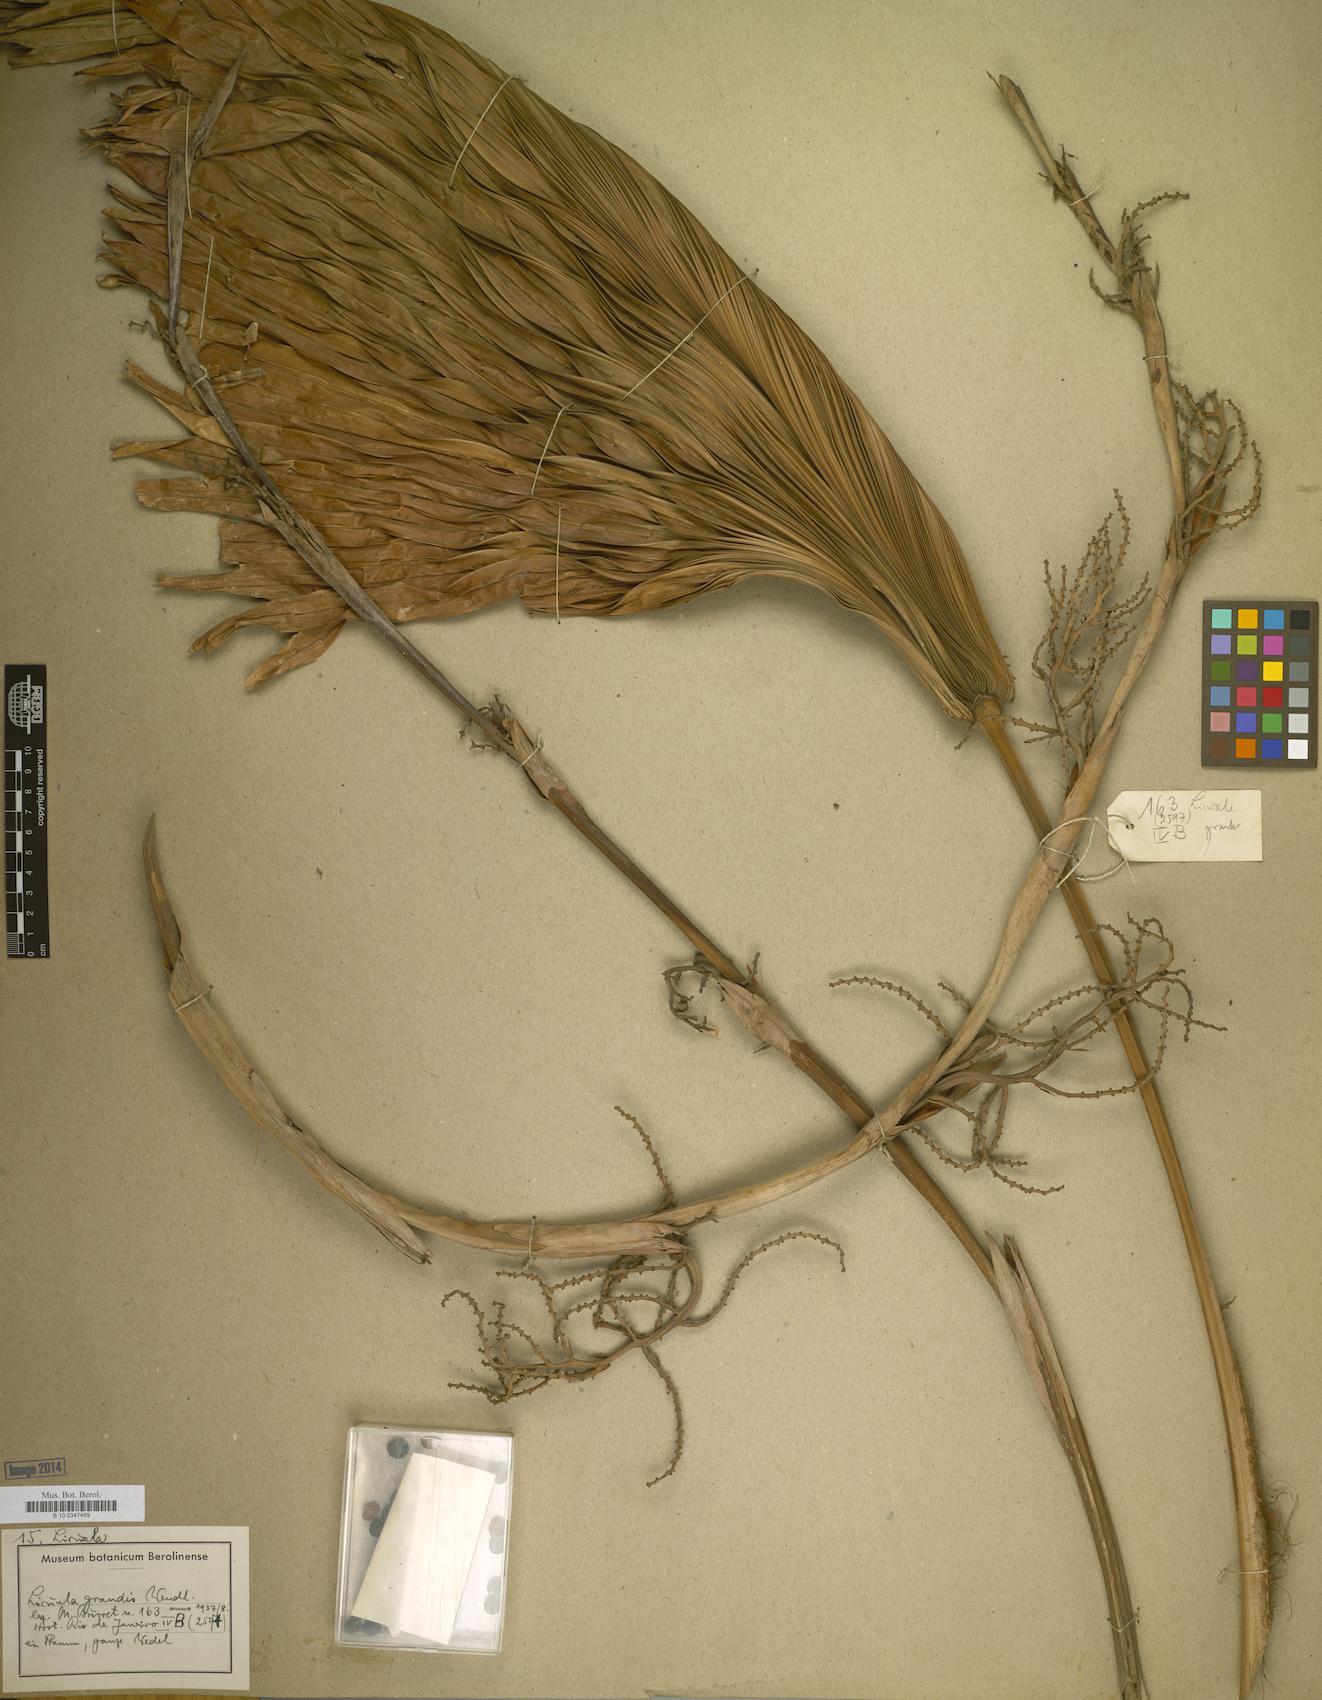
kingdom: Plantae
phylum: Tracheophyta
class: Liliopsida
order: Arecales
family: Arecaceae
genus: Licuala
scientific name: Licuala grandis
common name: Ruffled fan palm
